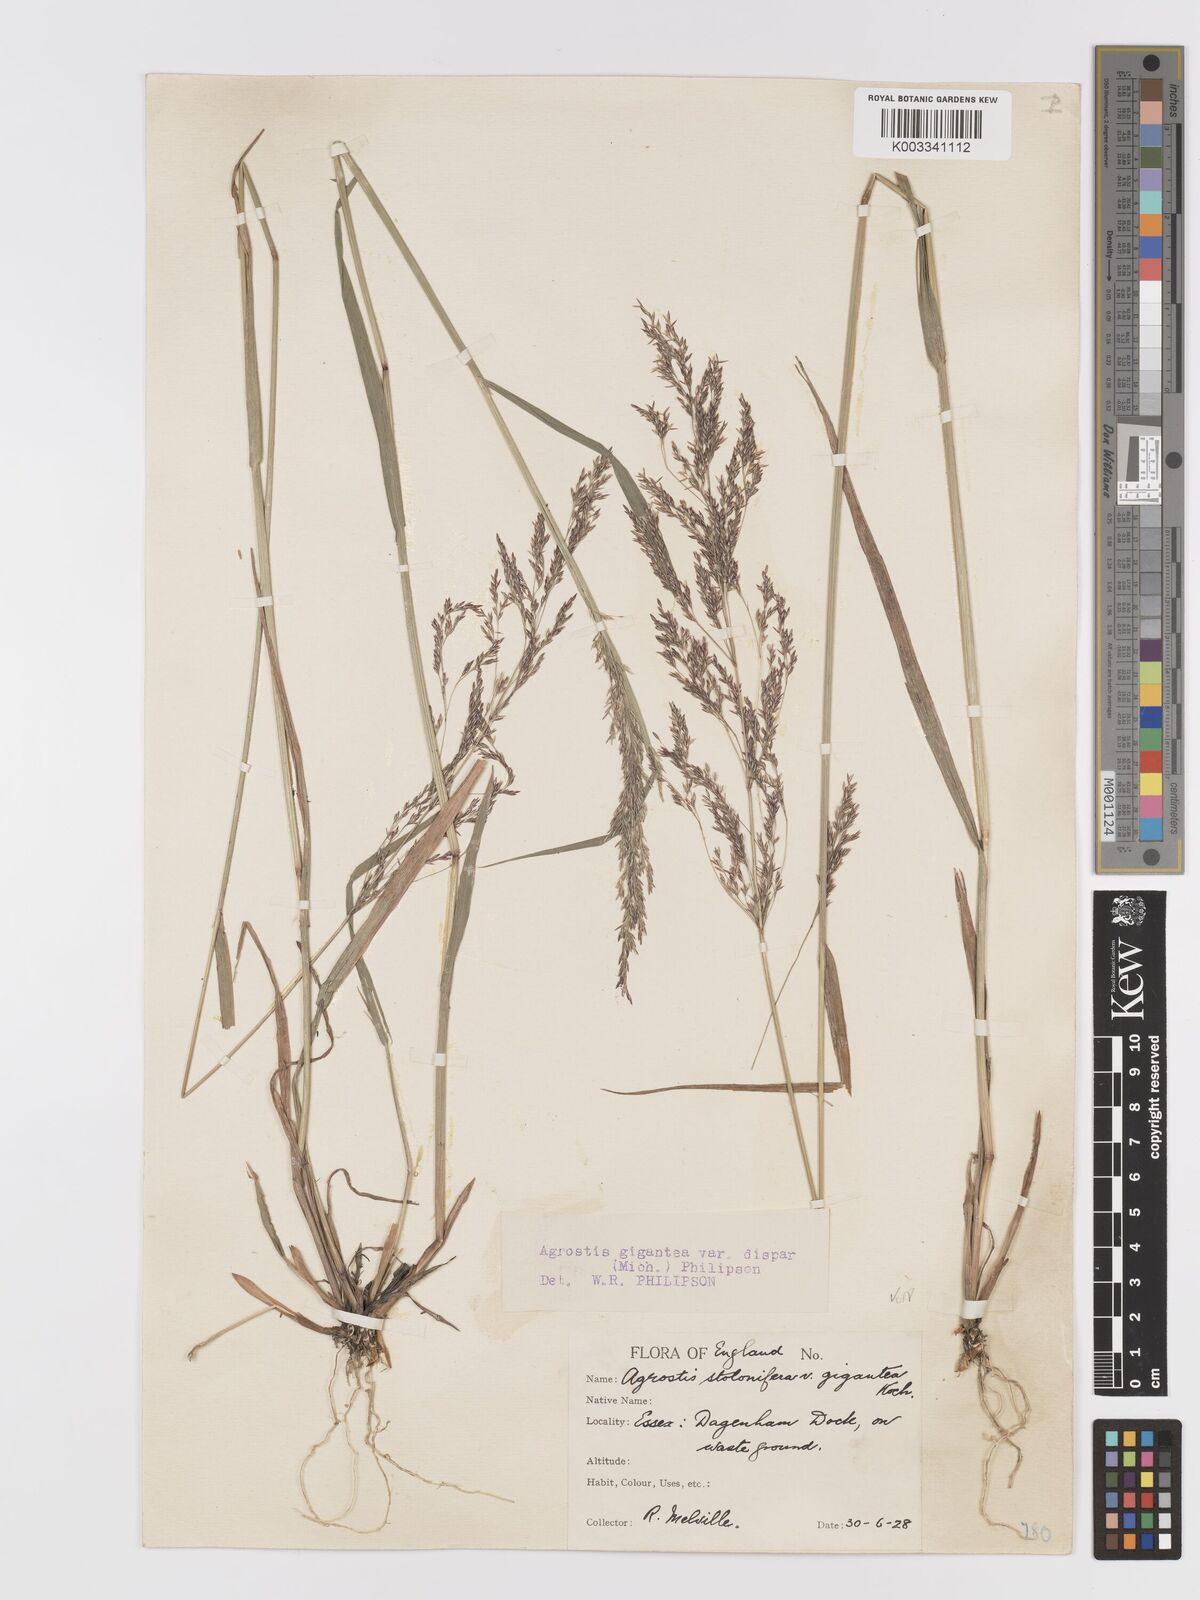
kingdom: Plantae
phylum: Tracheophyta
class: Liliopsida
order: Poales
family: Poaceae
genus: Agrostis
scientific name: Agrostis gigantea
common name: Black bent
